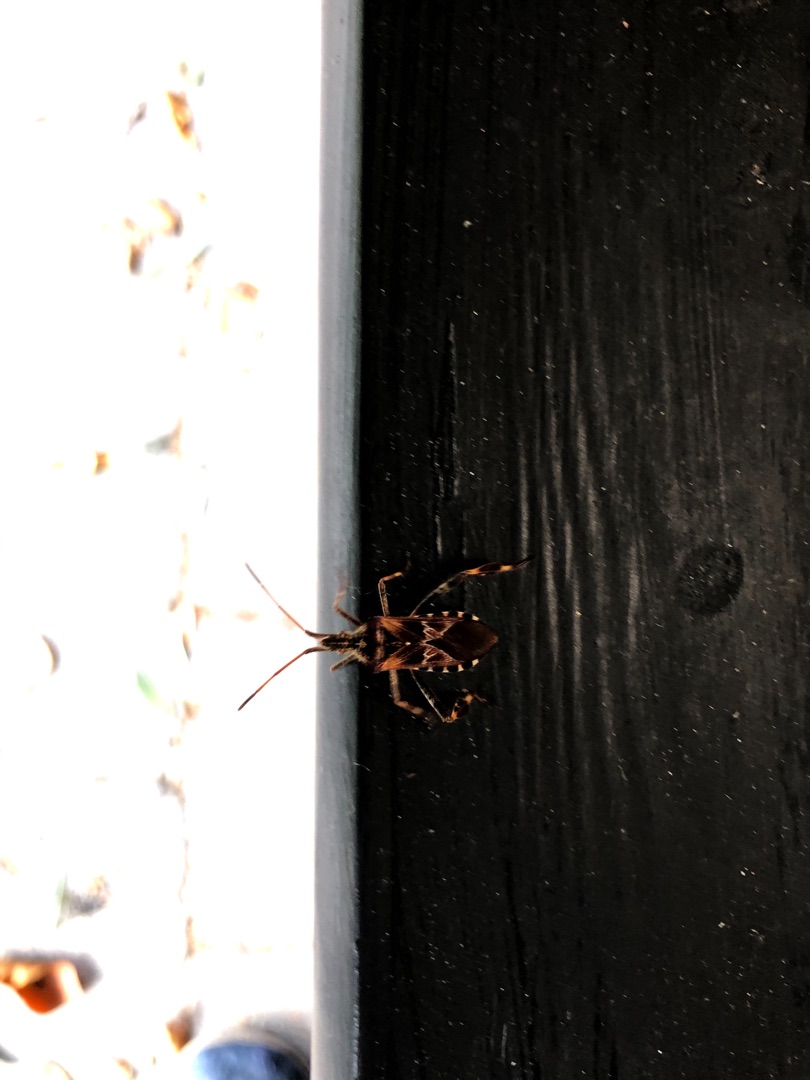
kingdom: Animalia
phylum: Arthropoda
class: Insecta
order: Hemiptera
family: Coreidae
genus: Leptoglossus
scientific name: Leptoglossus occidentalis
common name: Amerikansk fyrretæge
